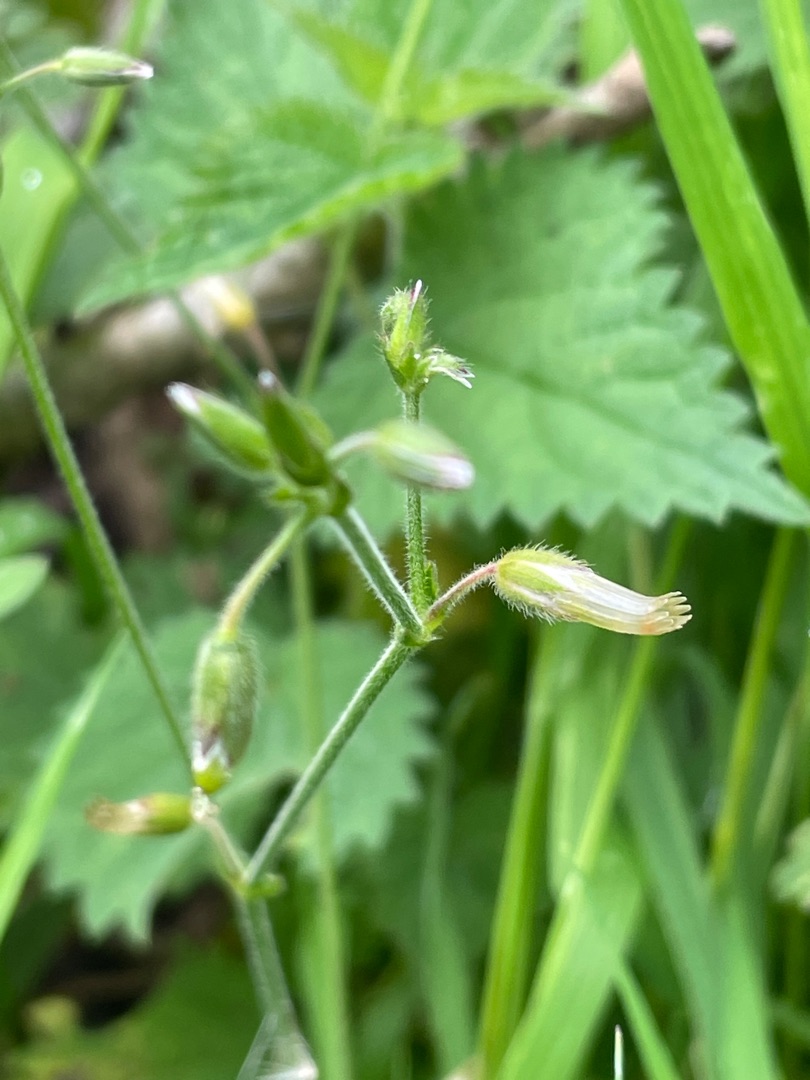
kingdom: Plantae
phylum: Tracheophyta
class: Magnoliopsida
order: Caryophyllales
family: Caryophyllaceae
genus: Cerastium
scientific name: Cerastium fontanum
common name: Almindelig hønsetarm
